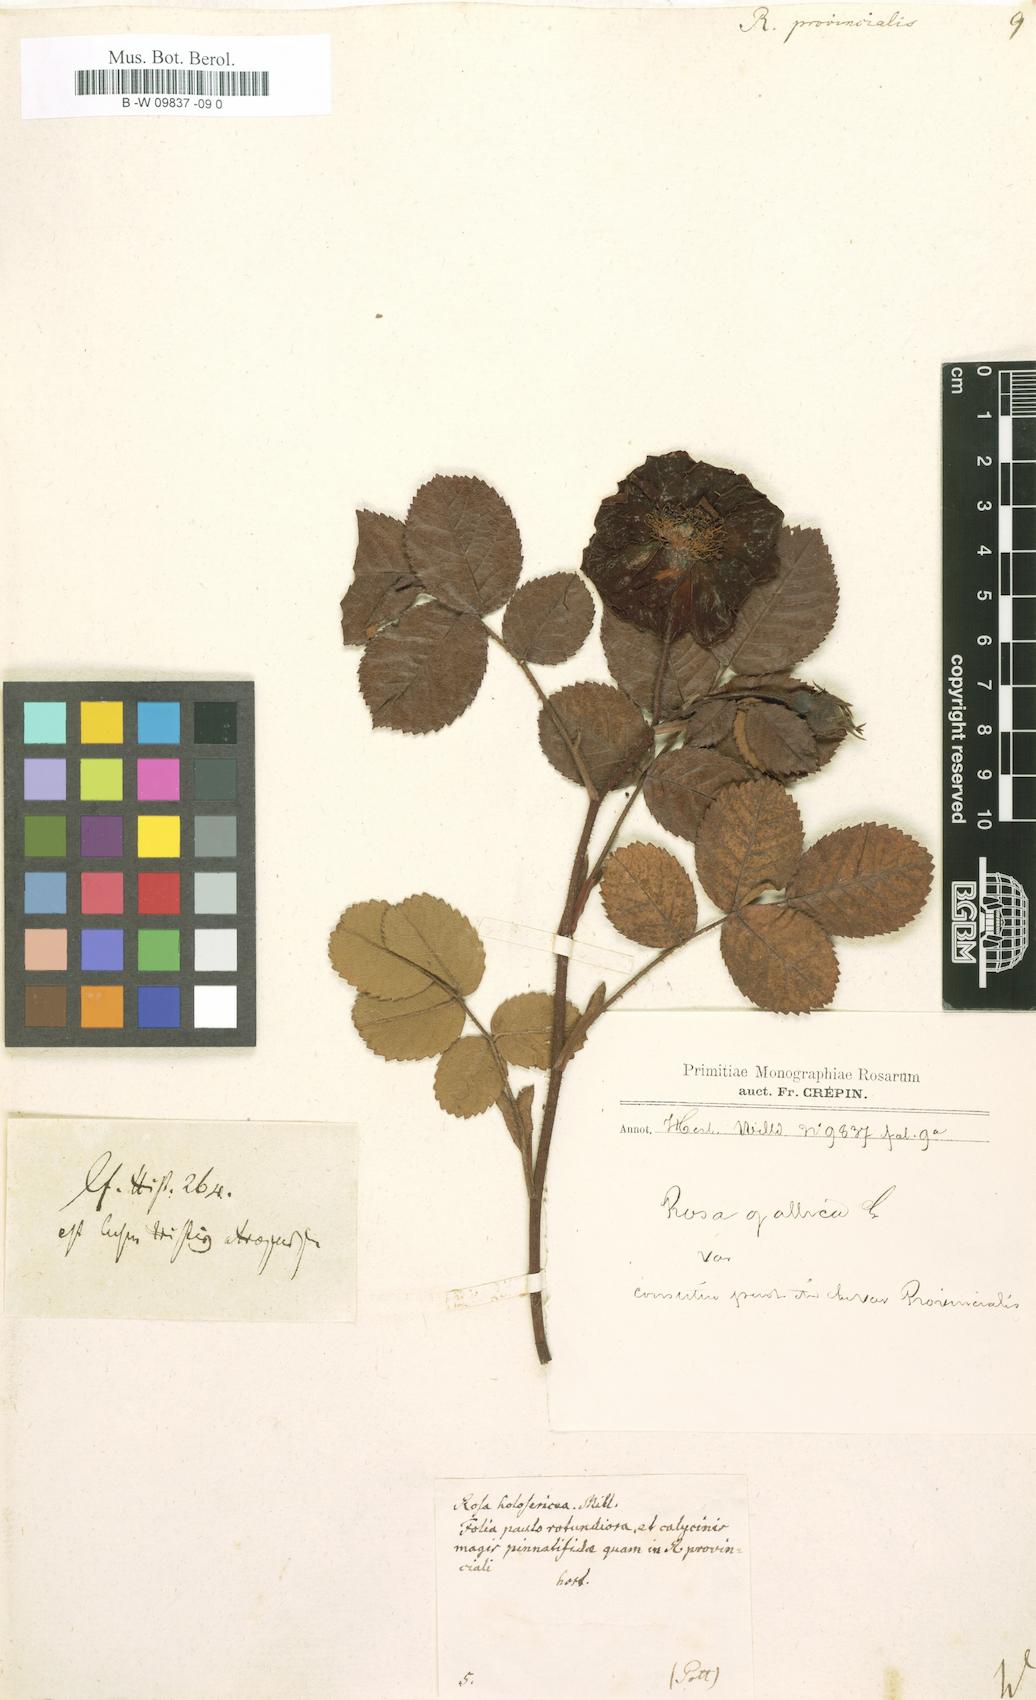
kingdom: Plantae
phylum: Tracheophyta
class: Magnoliopsida
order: Rosales
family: Rosaceae
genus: Rosa
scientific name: Rosa
